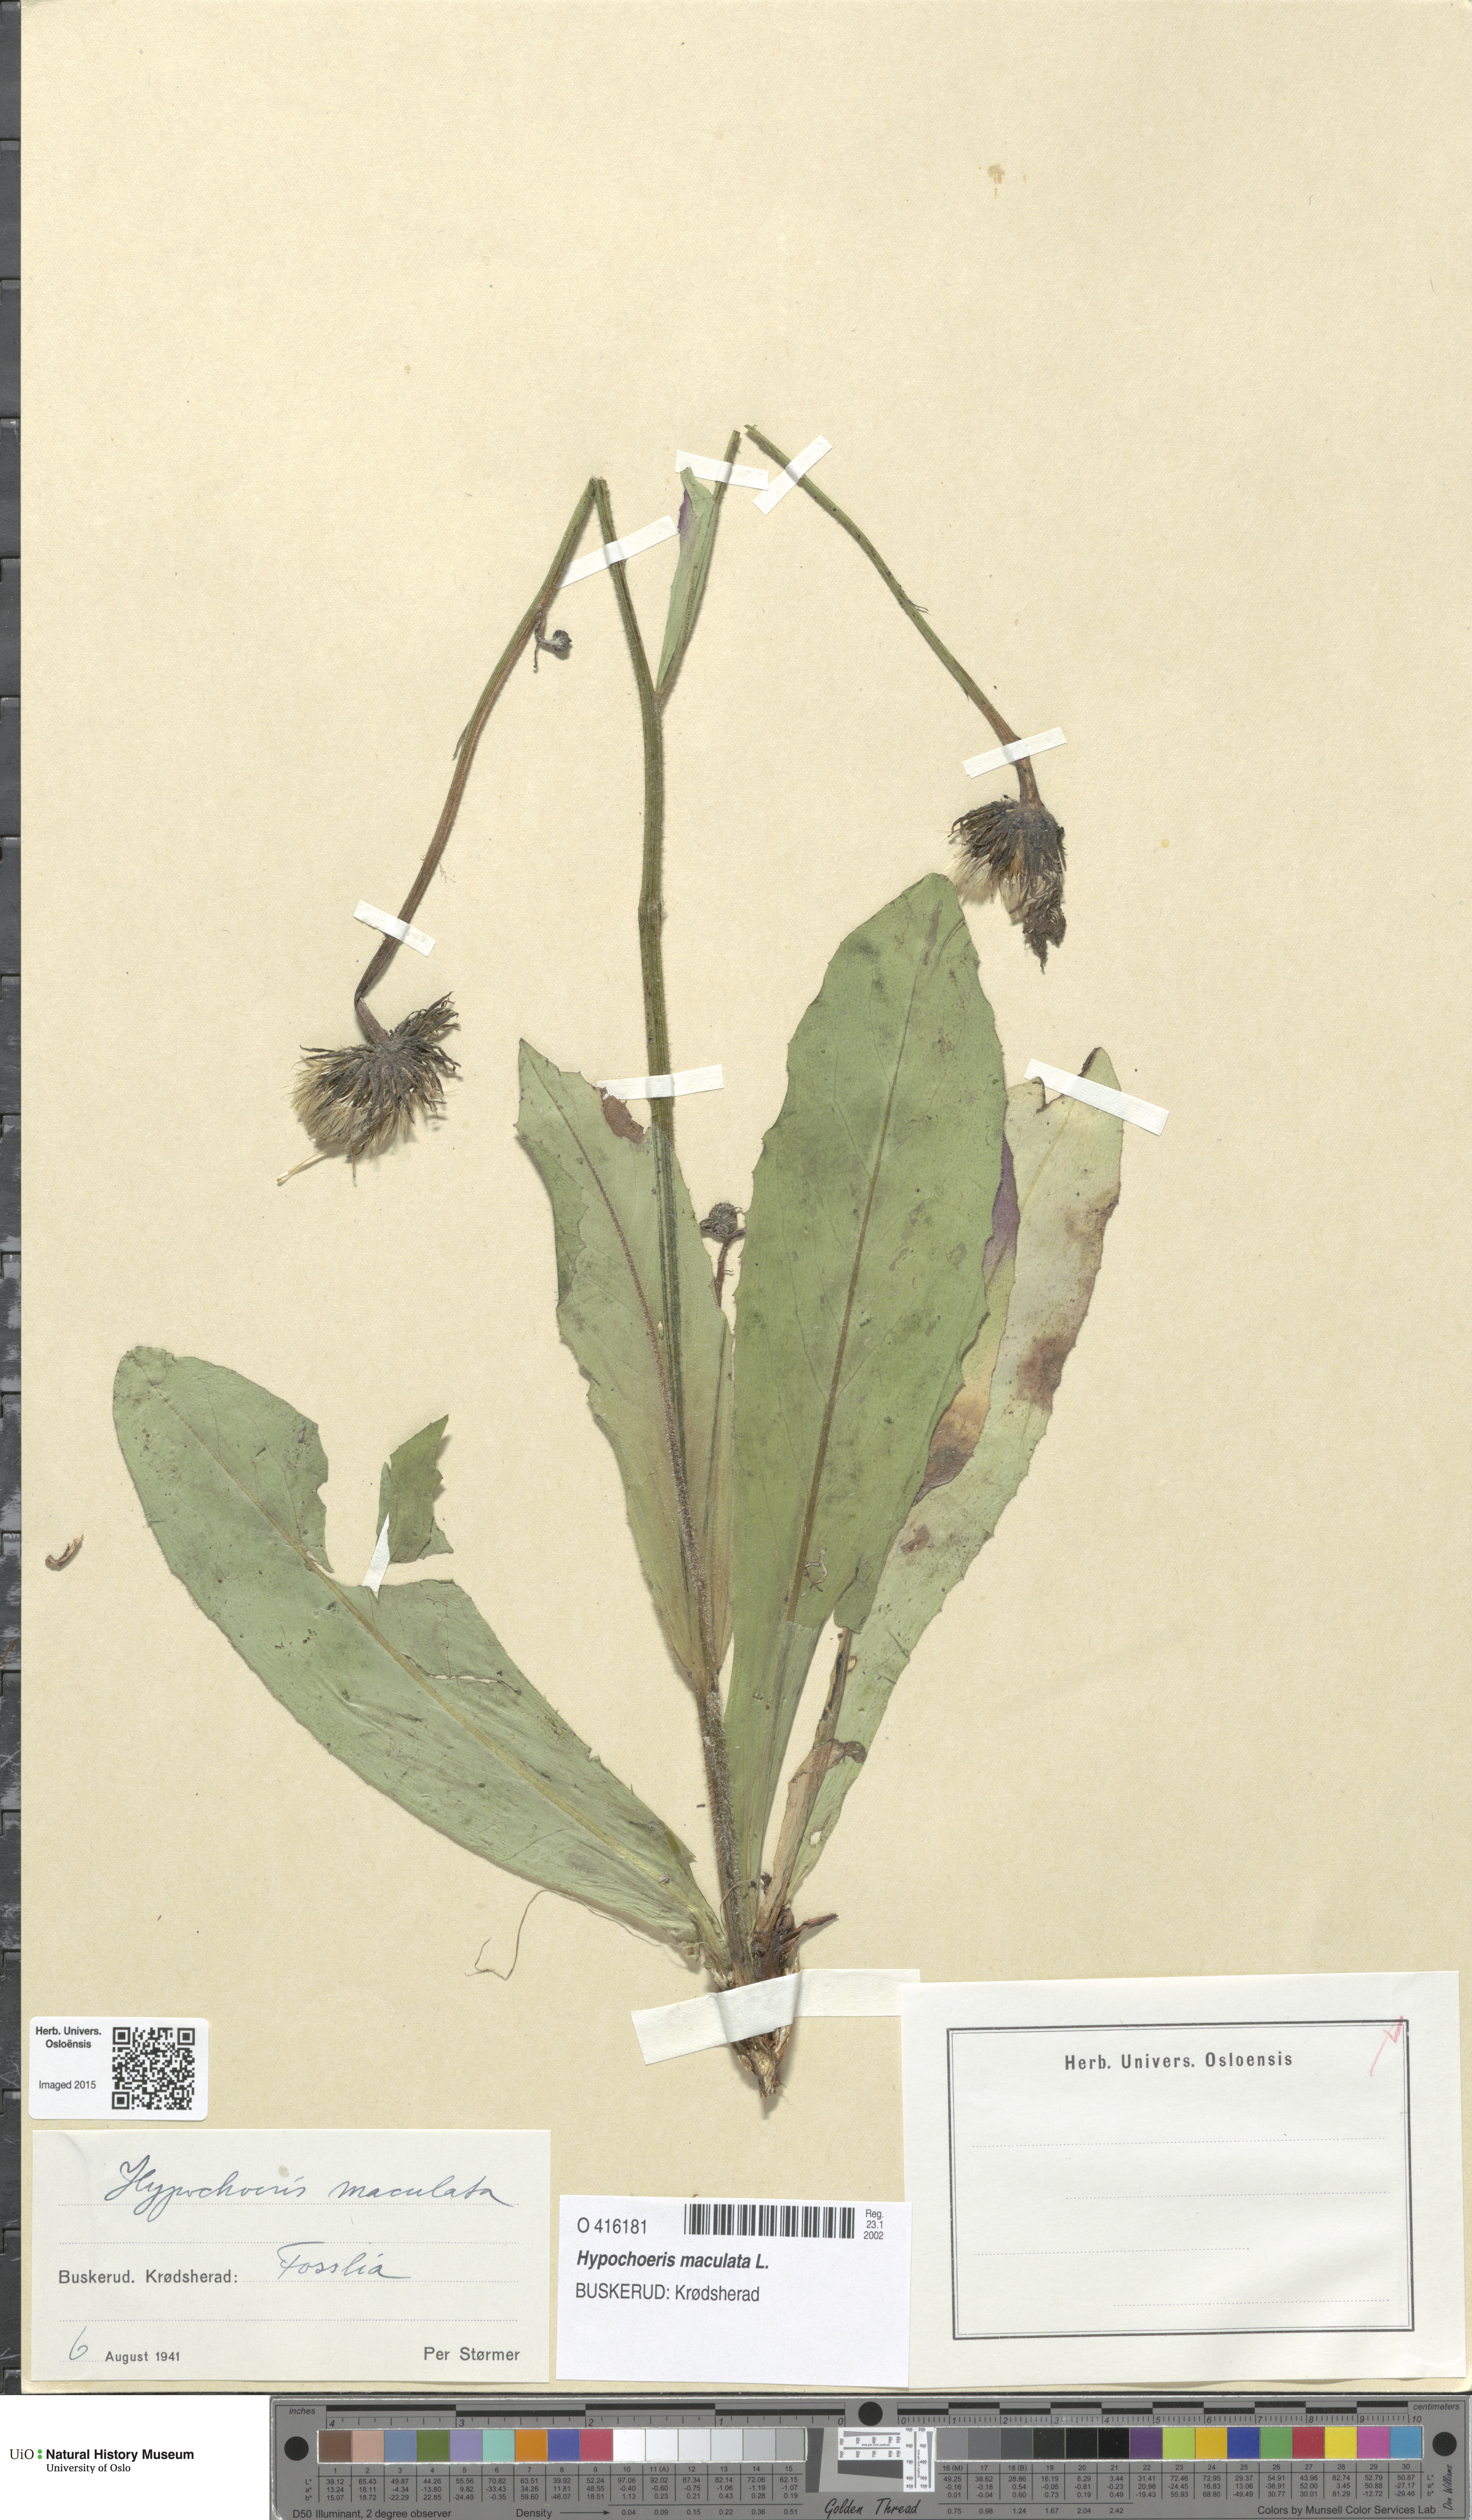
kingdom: Plantae
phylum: Tracheophyta
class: Magnoliopsida
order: Asterales
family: Asteraceae
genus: Trommsdorffia
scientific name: Trommsdorffia maculata
